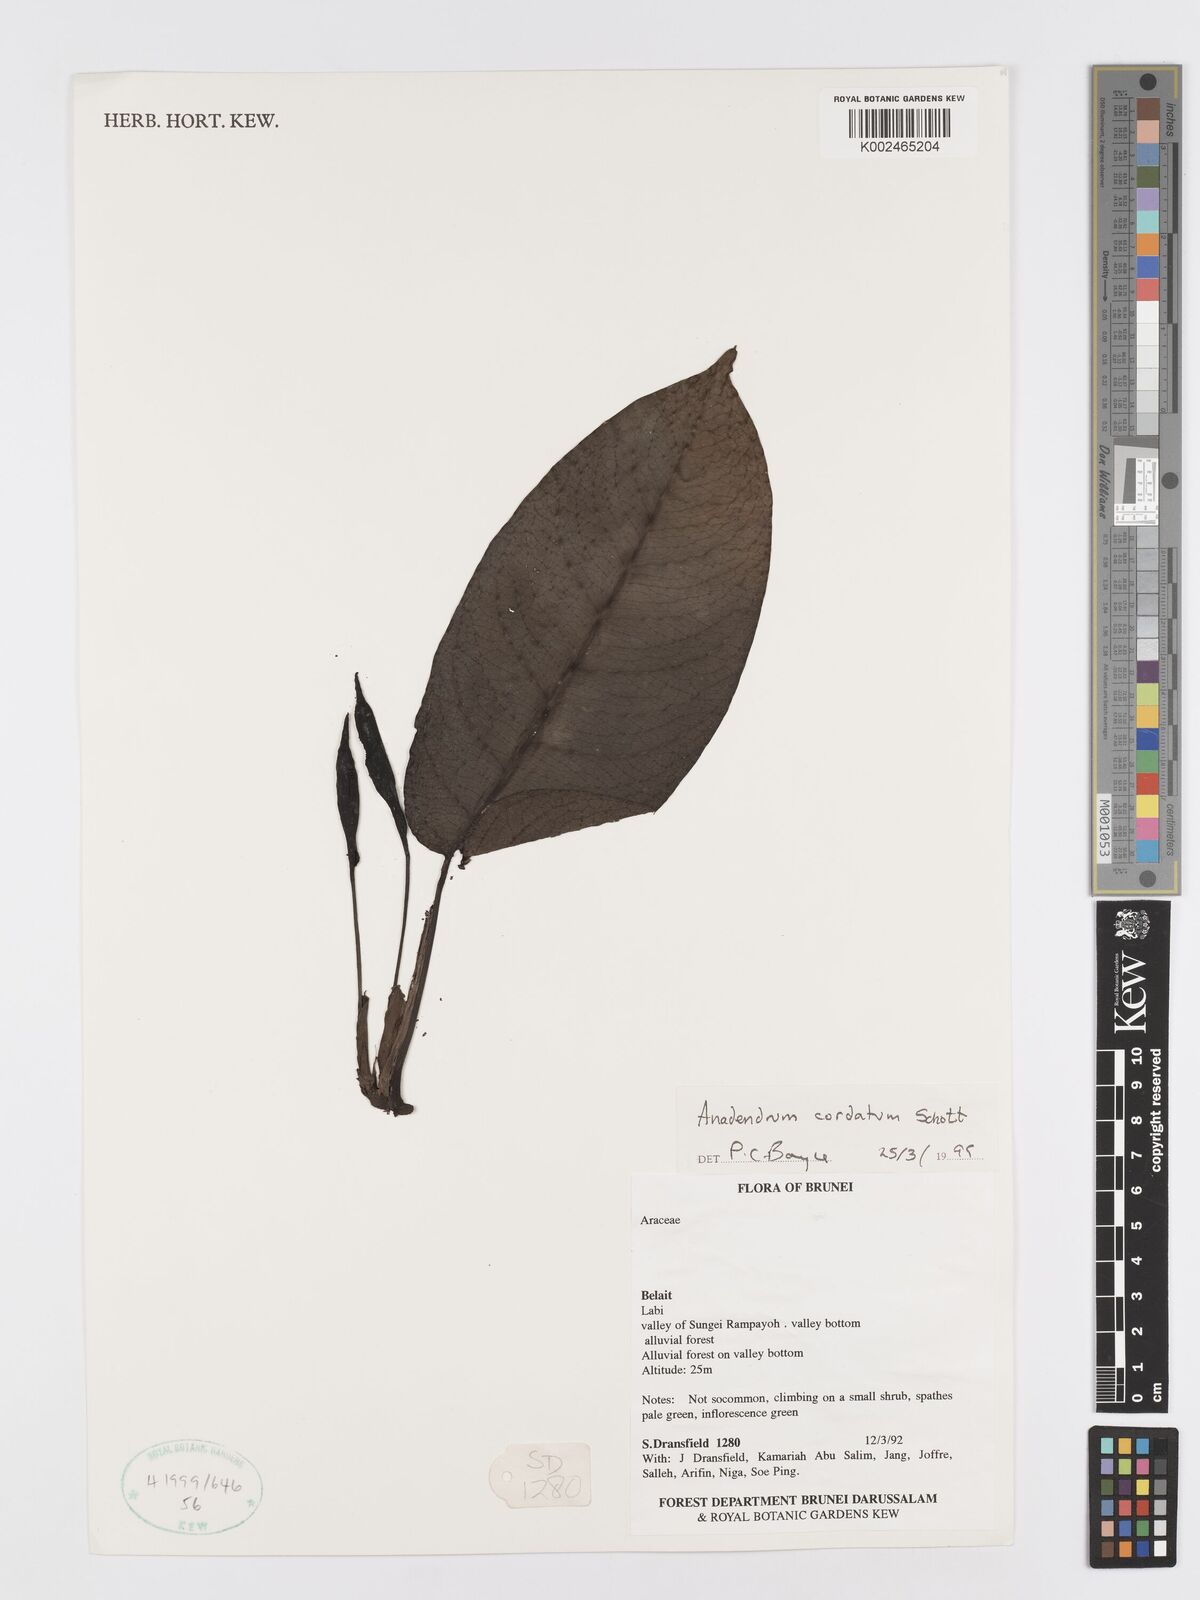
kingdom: Plantae
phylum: Tracheophyta
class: Liliopsida
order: Alismatales
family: Araceae
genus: Anadendrum
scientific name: Anadendrum cordatum
